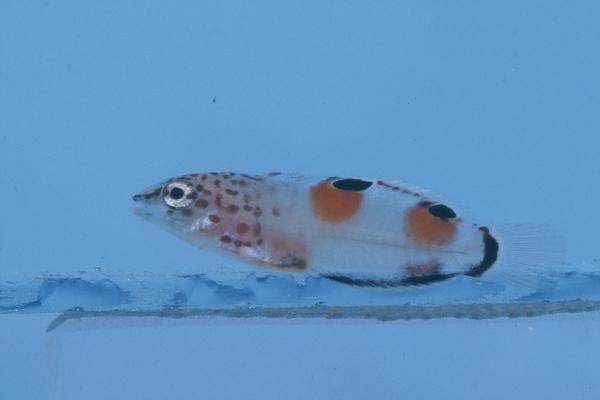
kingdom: Animalia
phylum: Chordata
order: Perciformes
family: Labridae
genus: Coris
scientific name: Coris aygula
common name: Clown coris
